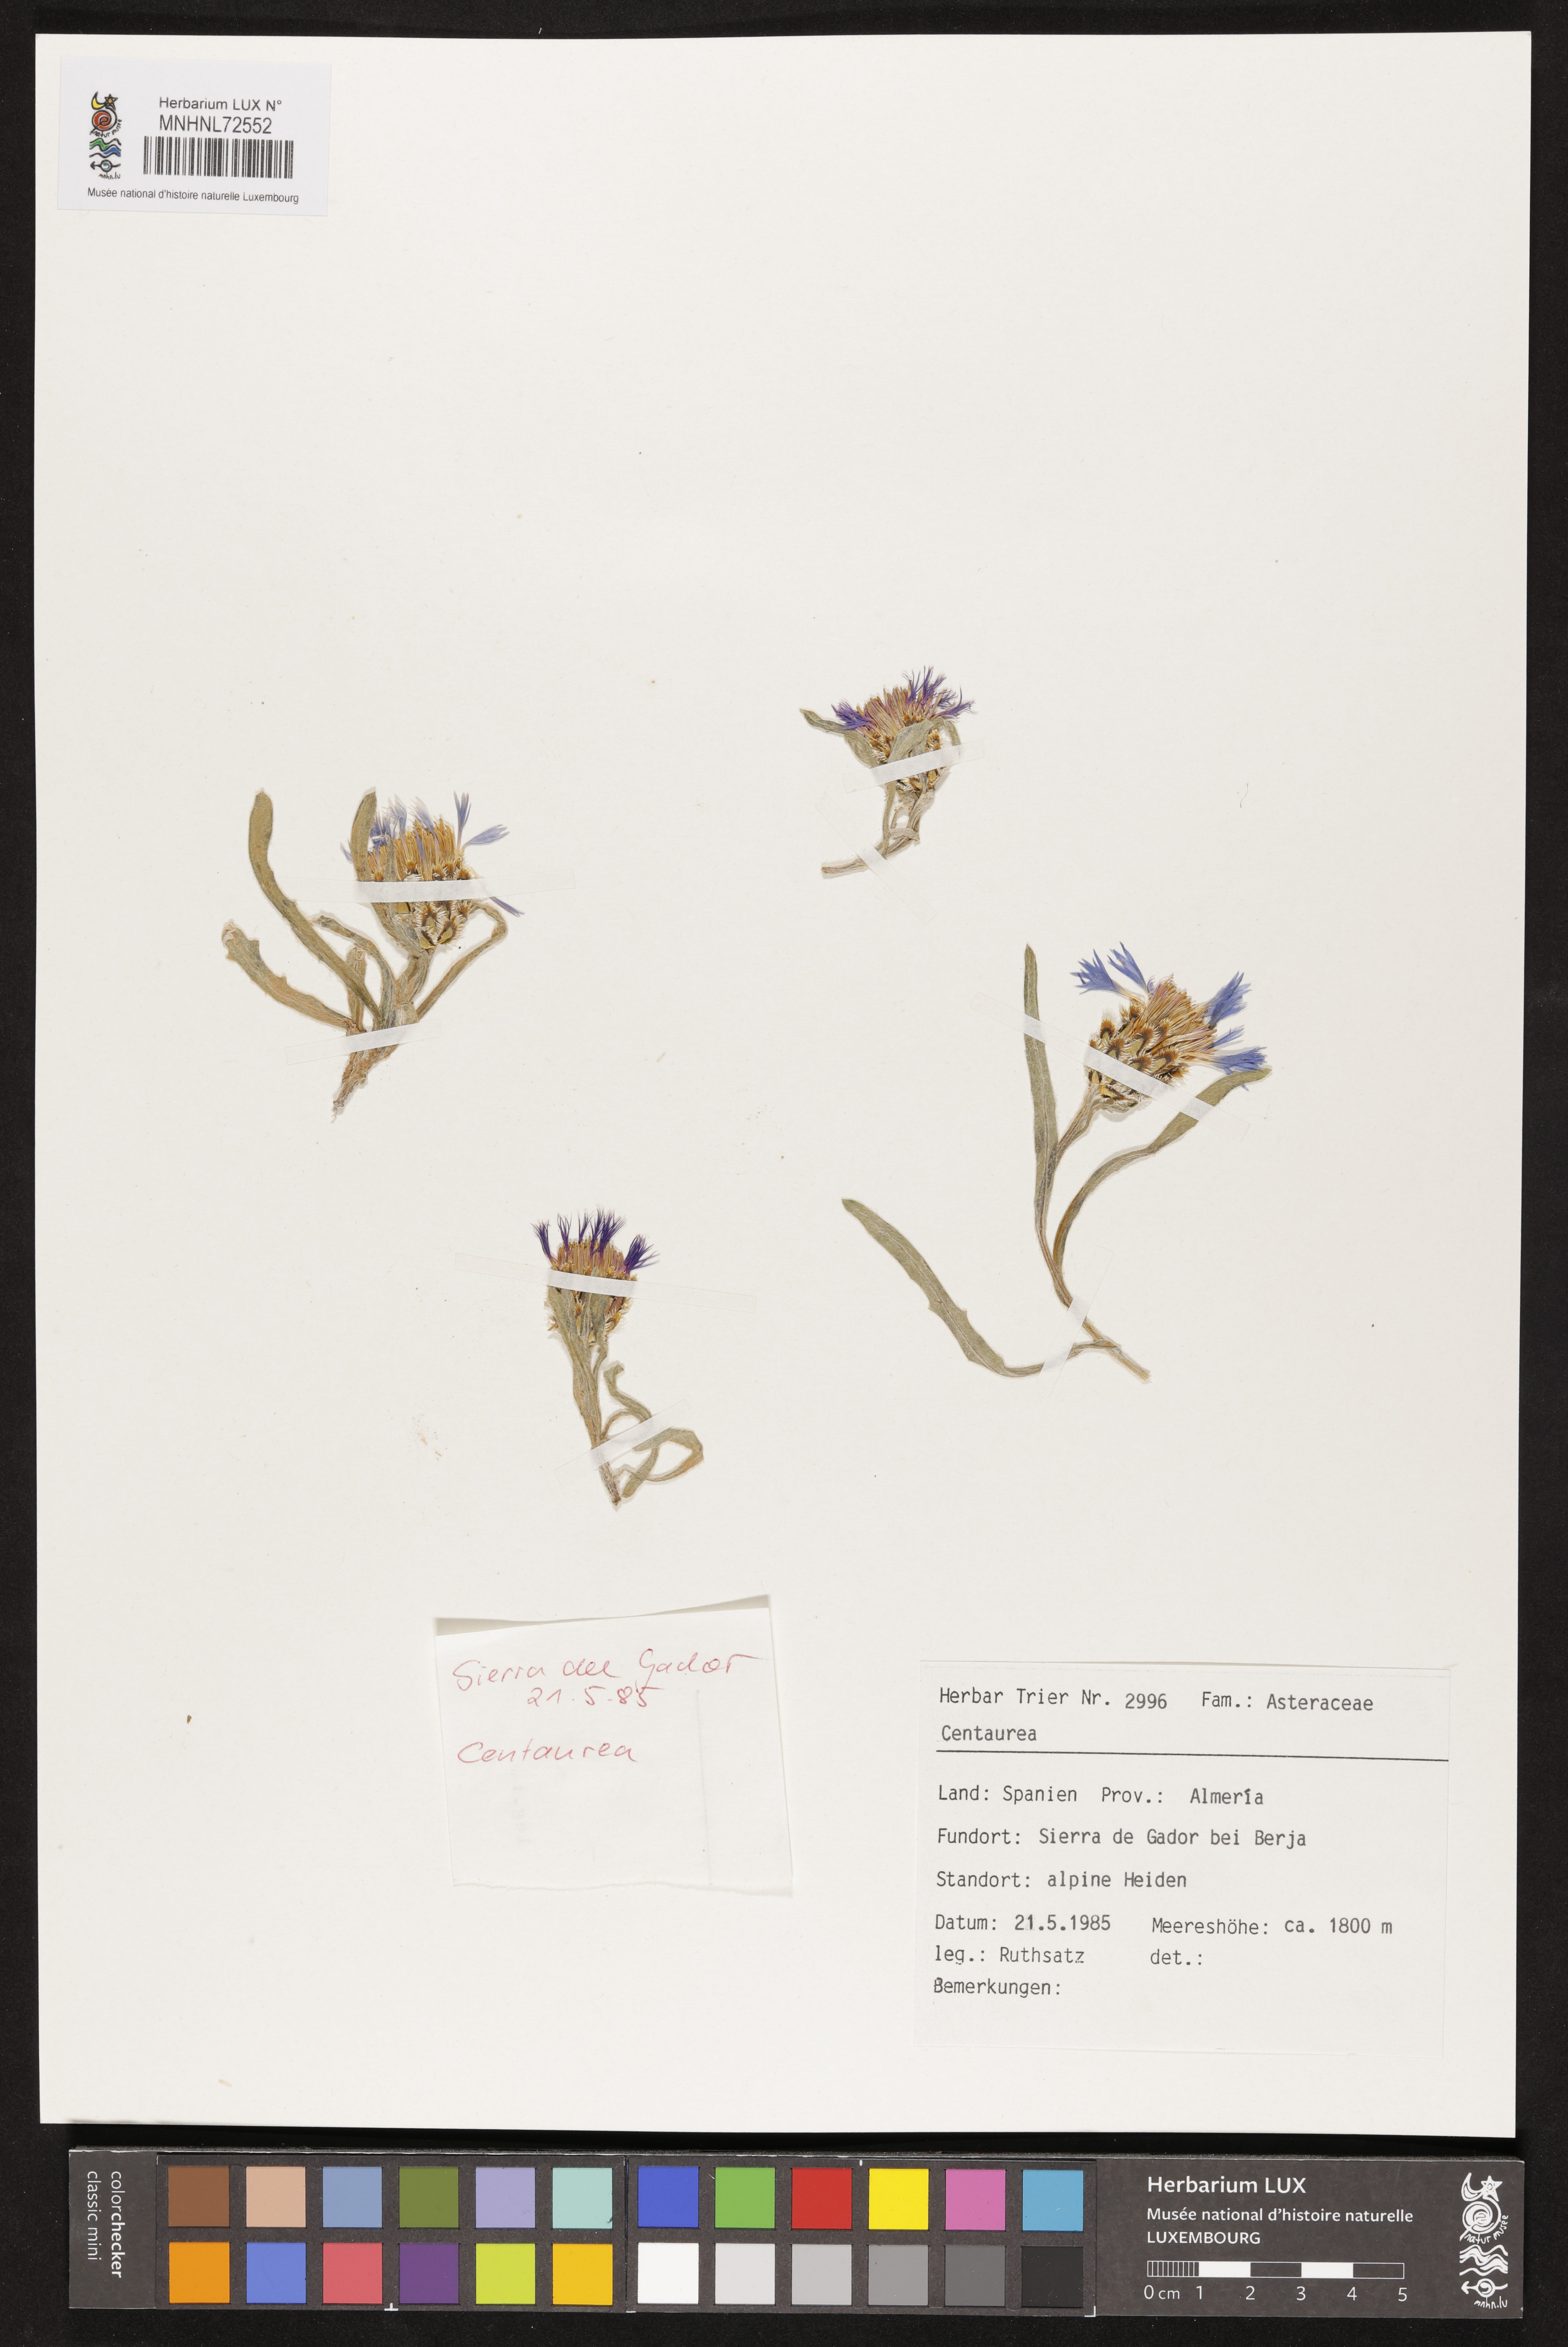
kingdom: Plantae
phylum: Tracheophyta
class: Magnoliopsida
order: Asterales
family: Asteraceae
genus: Centaurea
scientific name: Centaurea
